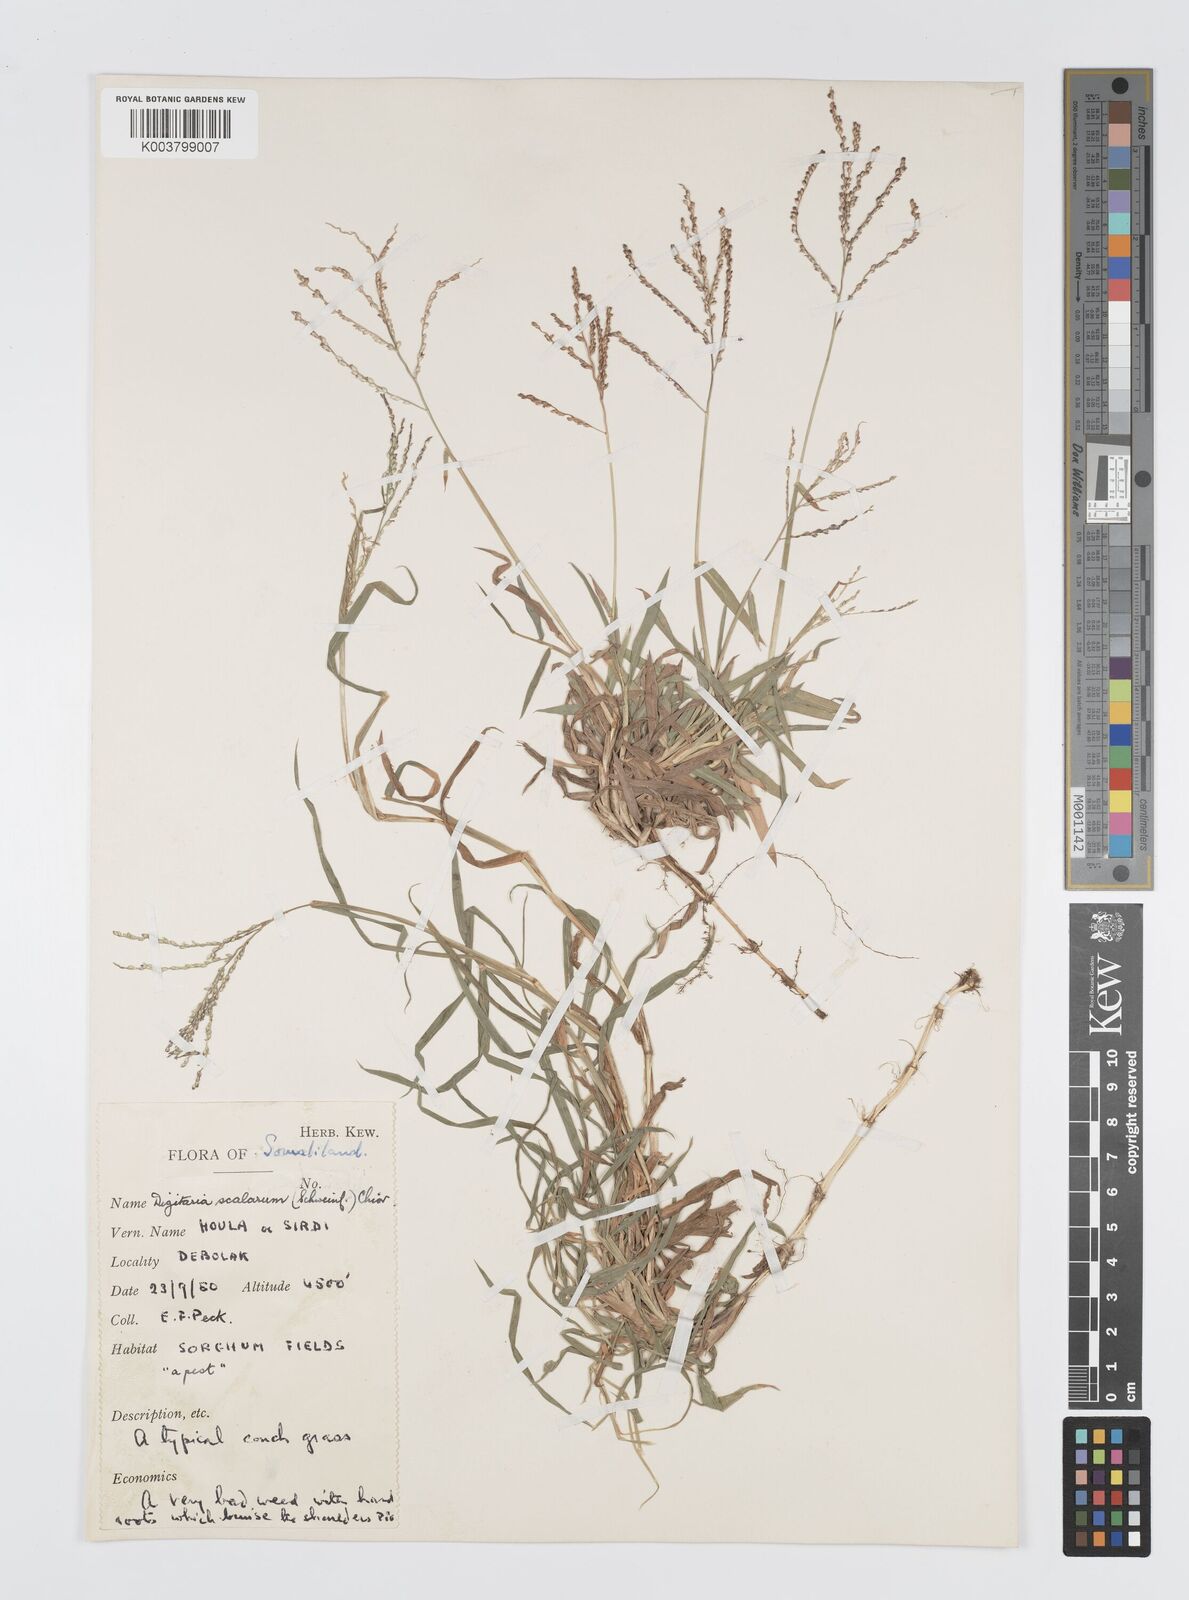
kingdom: Plantae
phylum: Tracheophyta
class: Liliopsida
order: Poales
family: Poaceae
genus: Digitaria
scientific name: Digitaria abyssinica
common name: African couchgrass
